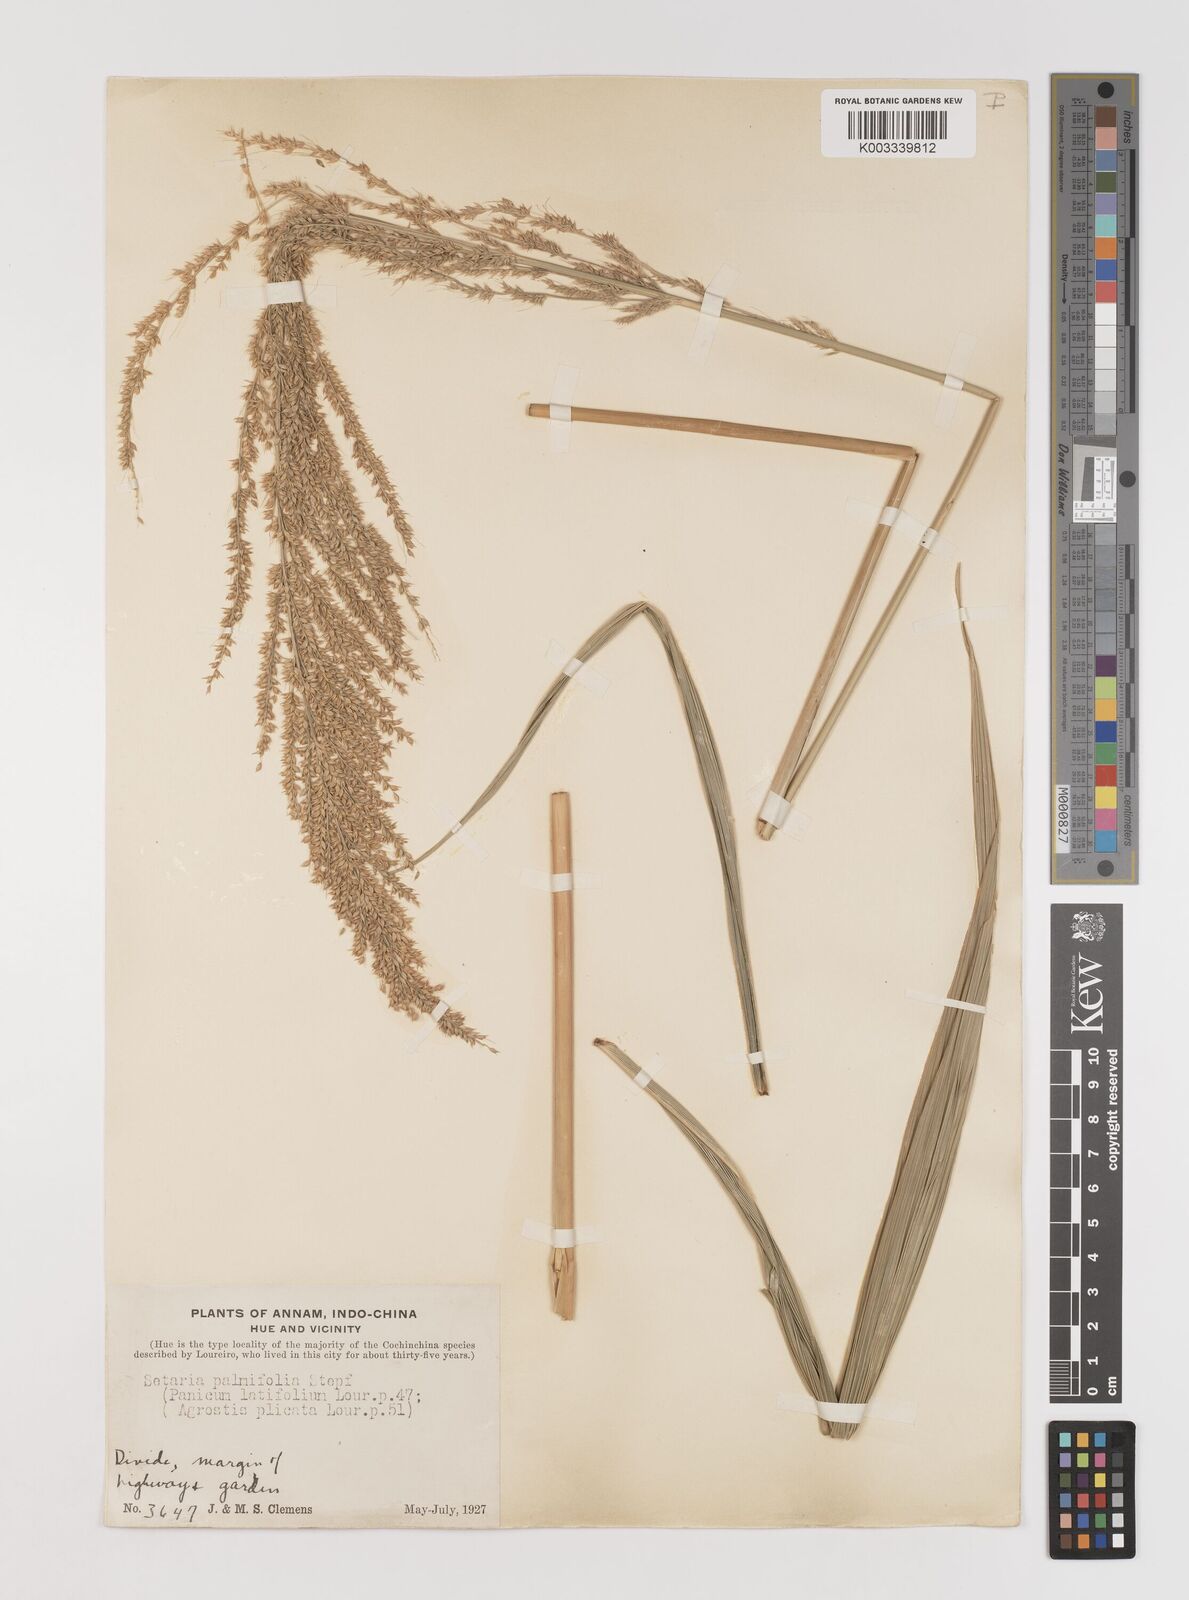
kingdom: Plantae
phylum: Tracheophyta
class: Liliopsida
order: Poales
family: Poaceae
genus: Setaria
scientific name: Setaria palmifolia
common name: Broadleaved bristlegrass
